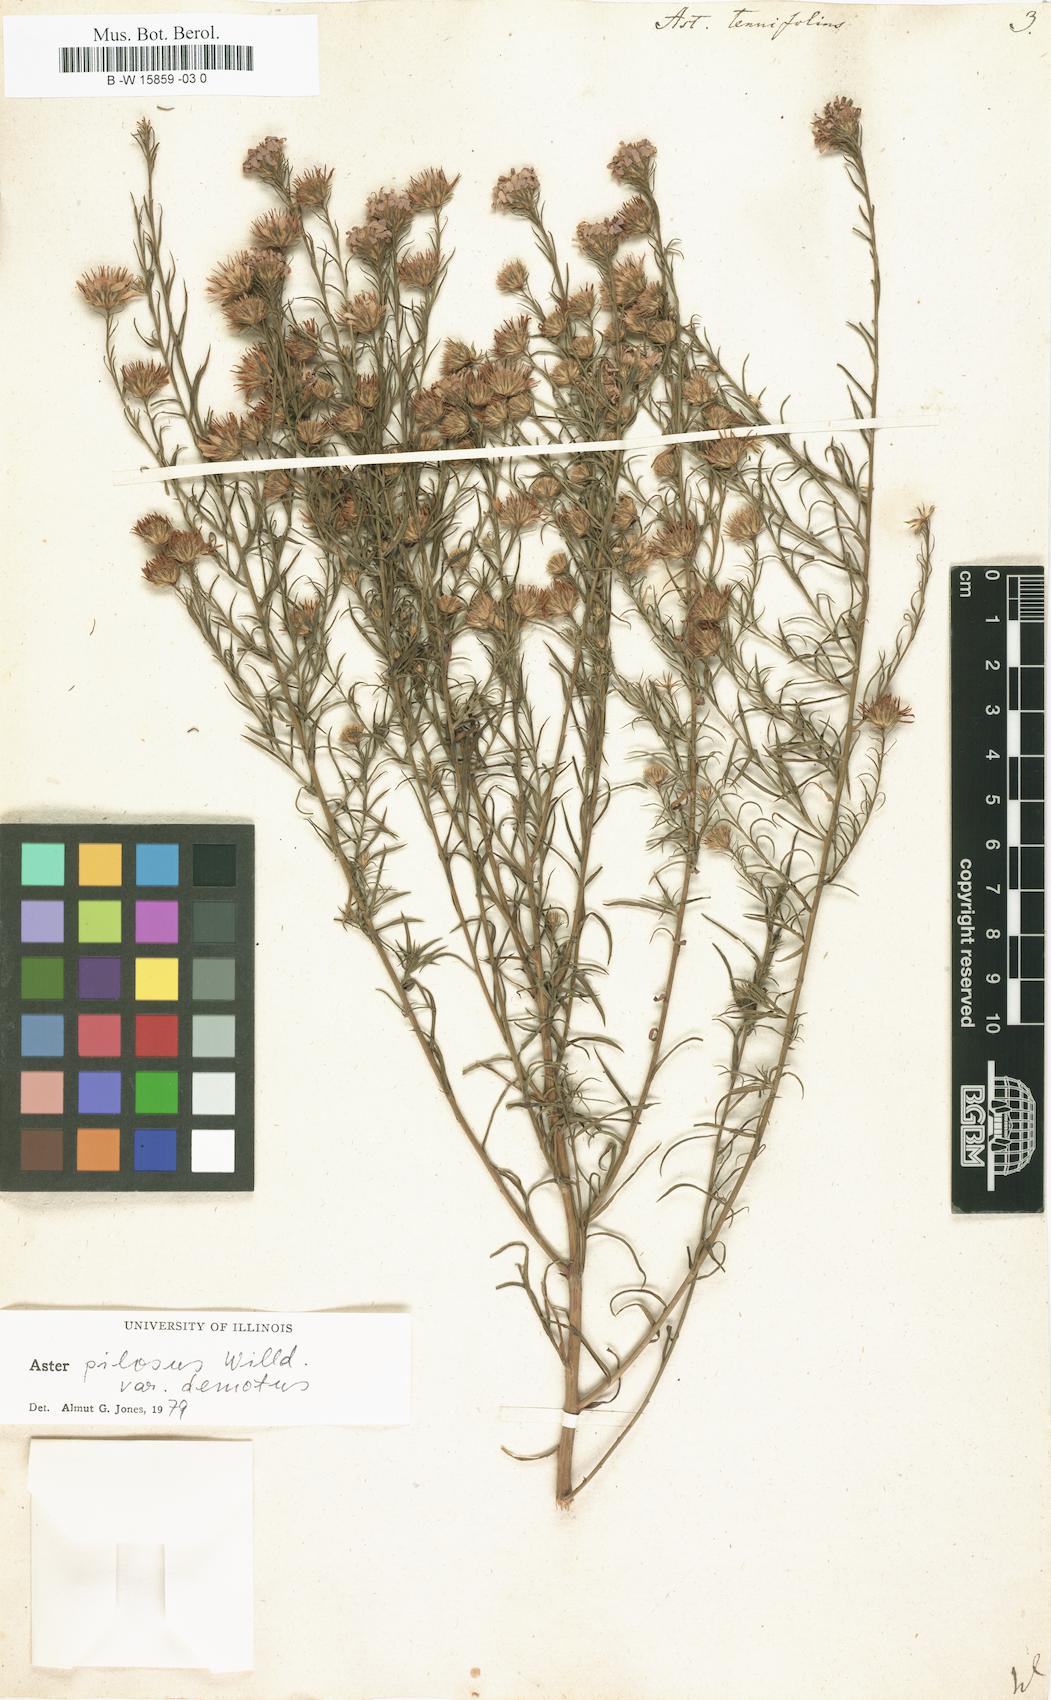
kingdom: Plantae
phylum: Tracheophyta
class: Magnoliopsida
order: Asterales
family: Asteraceae
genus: Aster
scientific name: Aster tenuifolius
